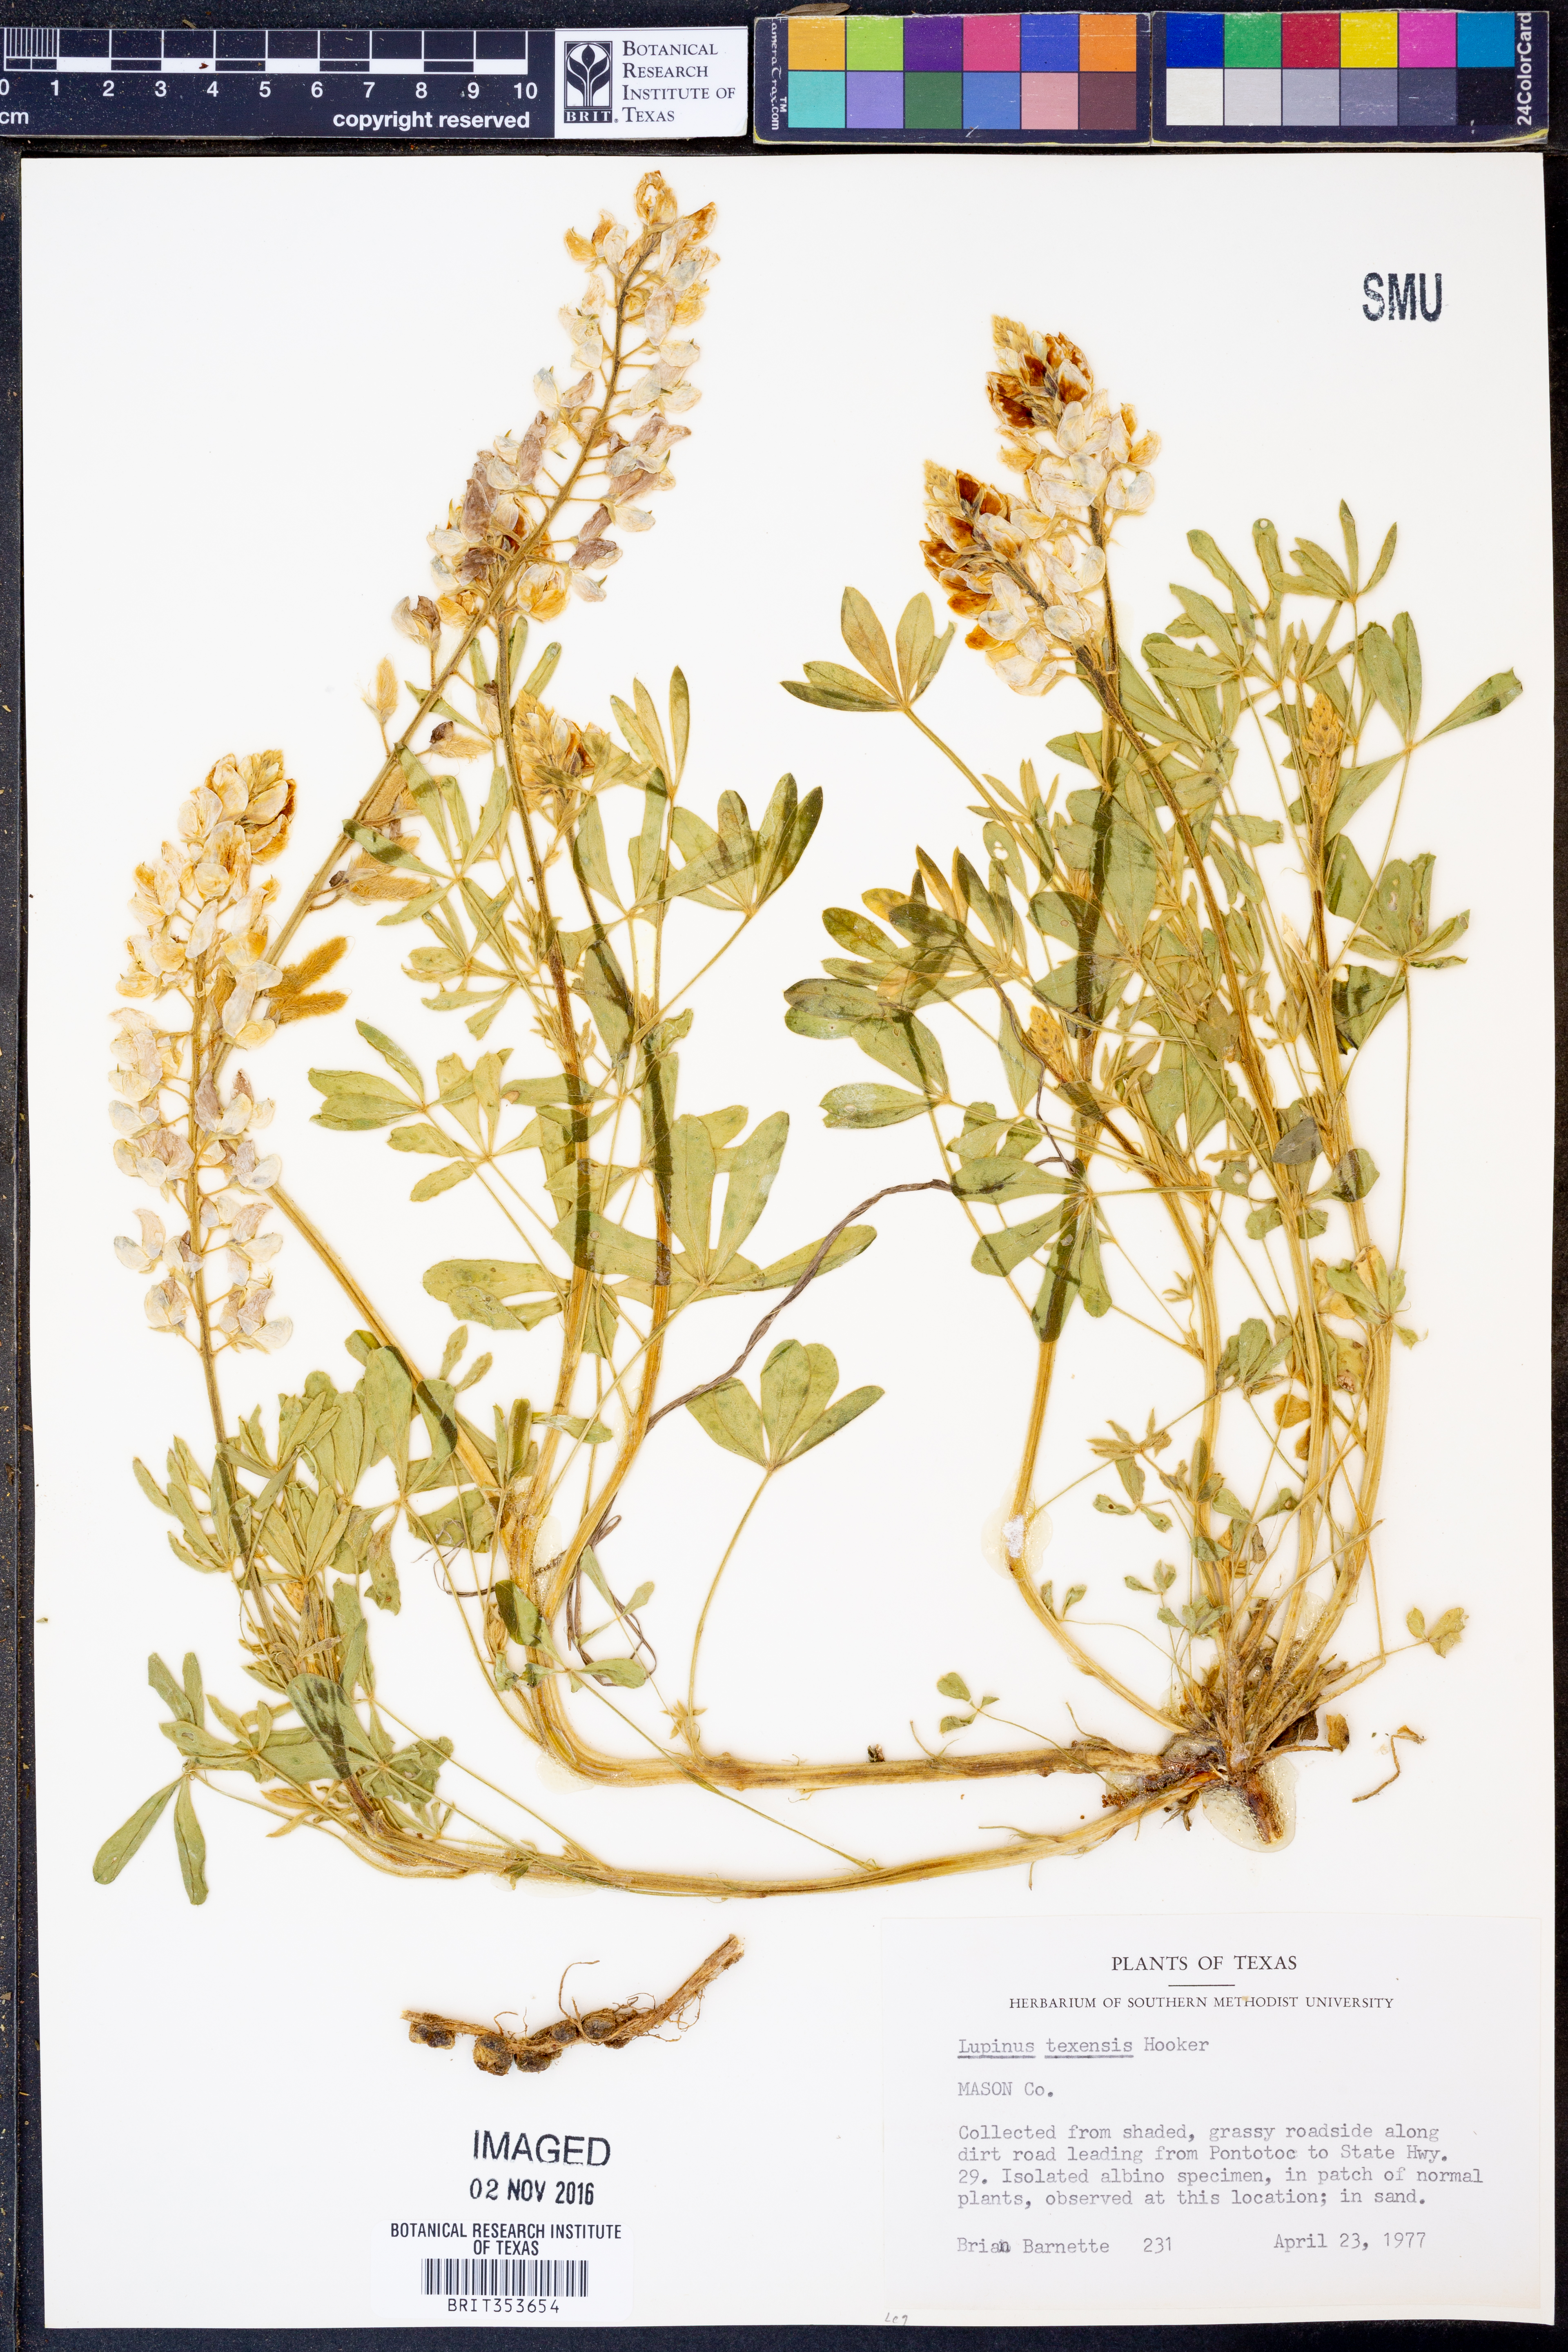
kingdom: Plantae
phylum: Tracheophyta
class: Magnoliopsida
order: Fabales
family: Fabaceae
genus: Lupinus
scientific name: Lupinus texensis
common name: Texas bluebonnet
